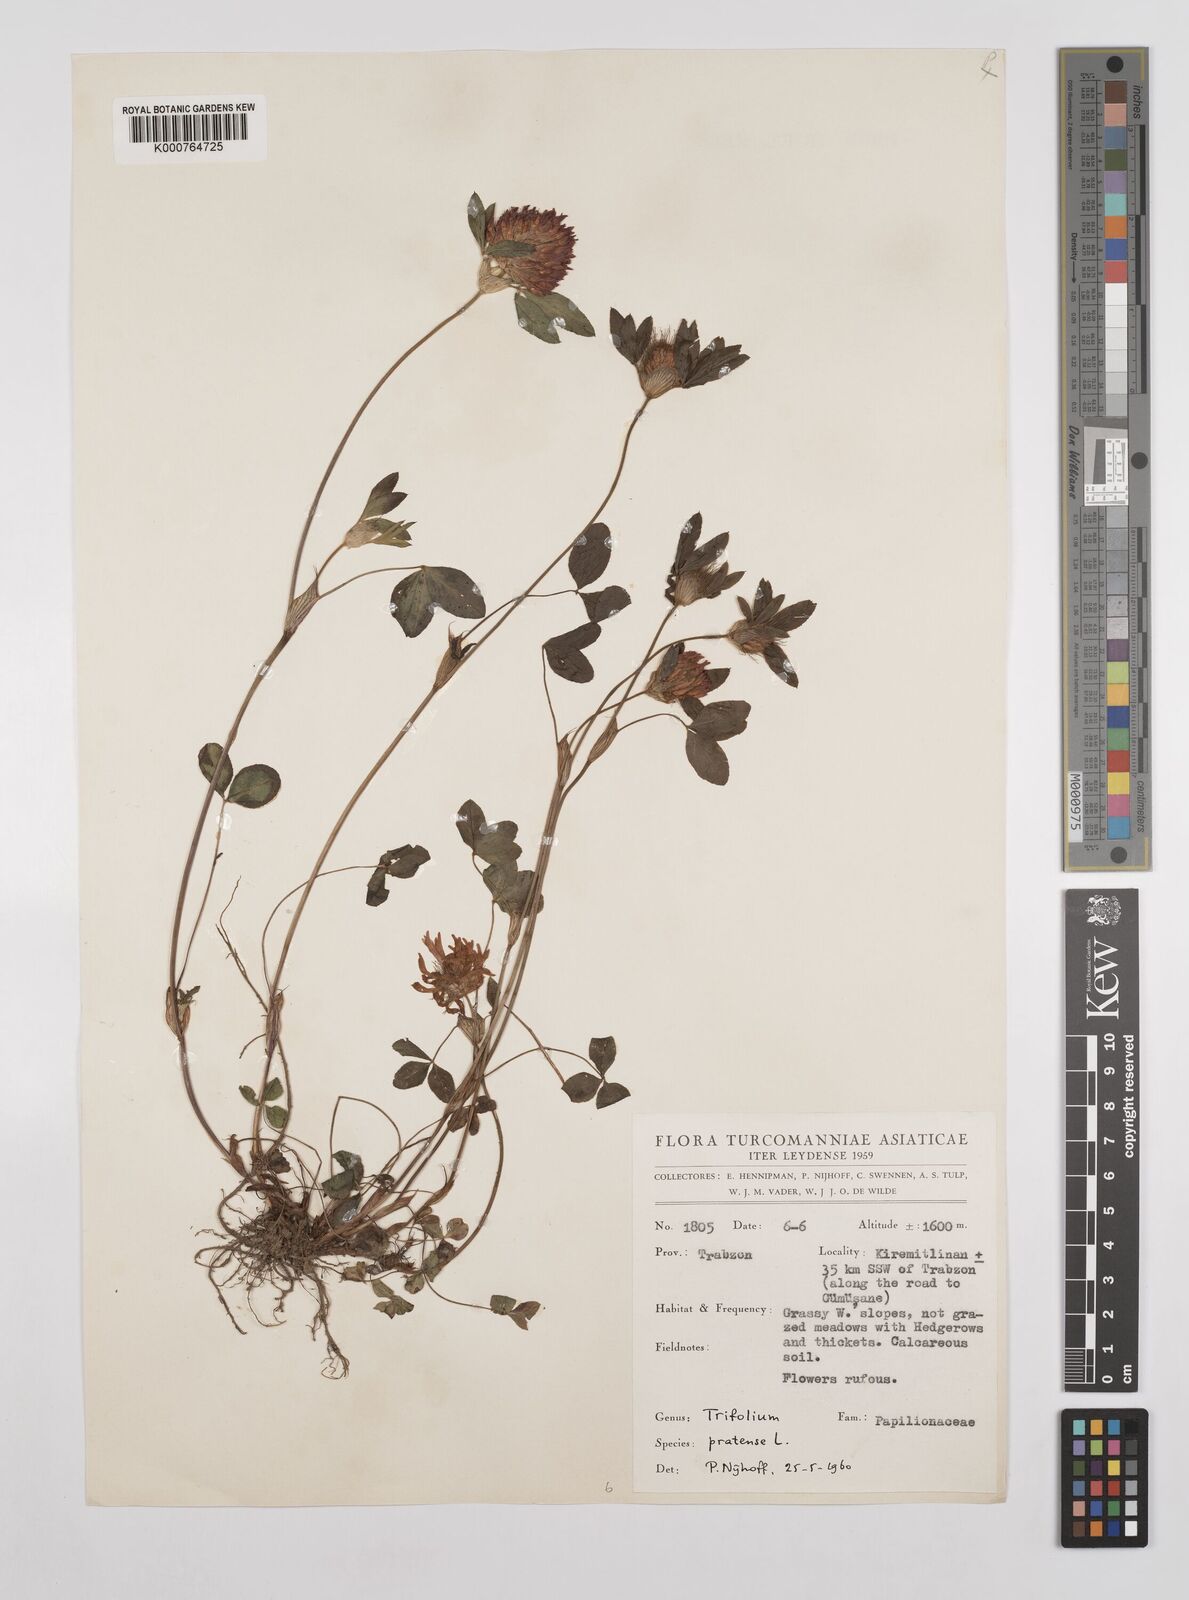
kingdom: Plantae
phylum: Tracheophyta
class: Magnoliopsida
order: Fabales
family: Fabaceae
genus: Trifolium
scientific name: Trifolium pratense
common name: Red clover
